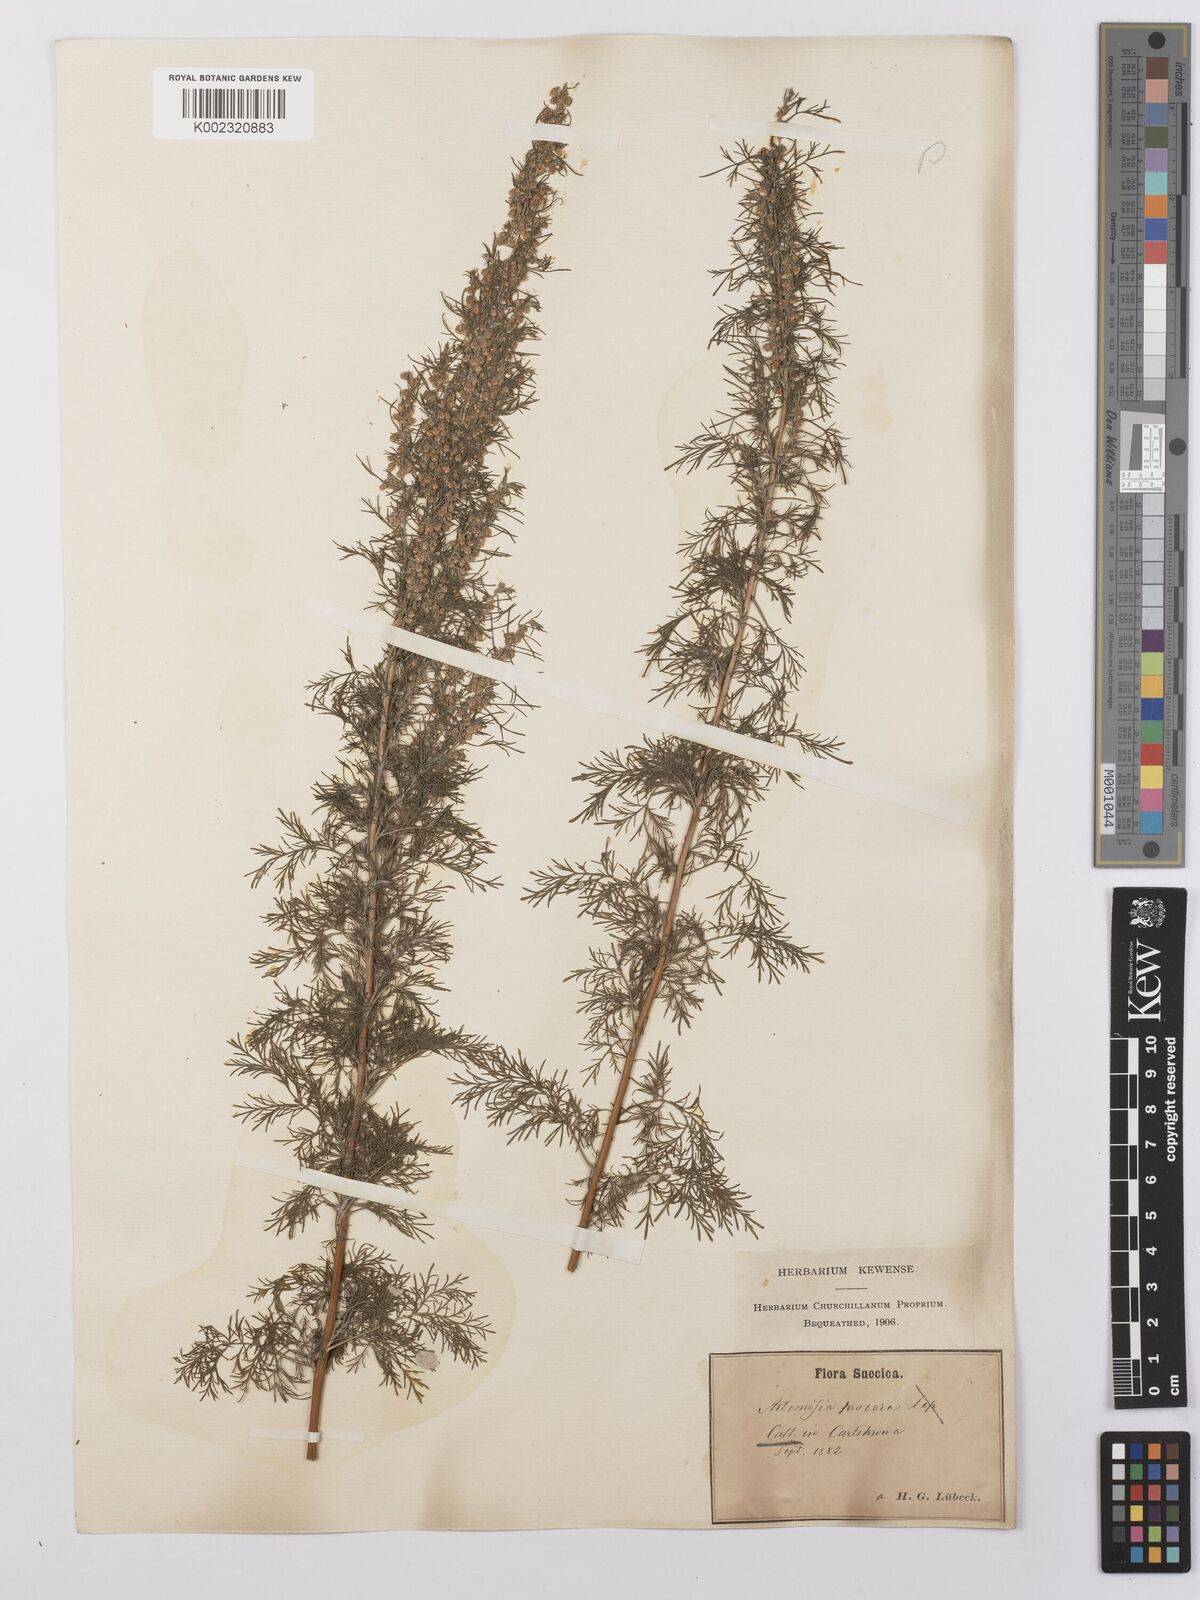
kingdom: Plantae
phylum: Tracheophyta
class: Magnoliopsida
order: Asterales
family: Asteraceae
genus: Artemisia
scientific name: Artemisia abrotanum
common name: Southernwood
